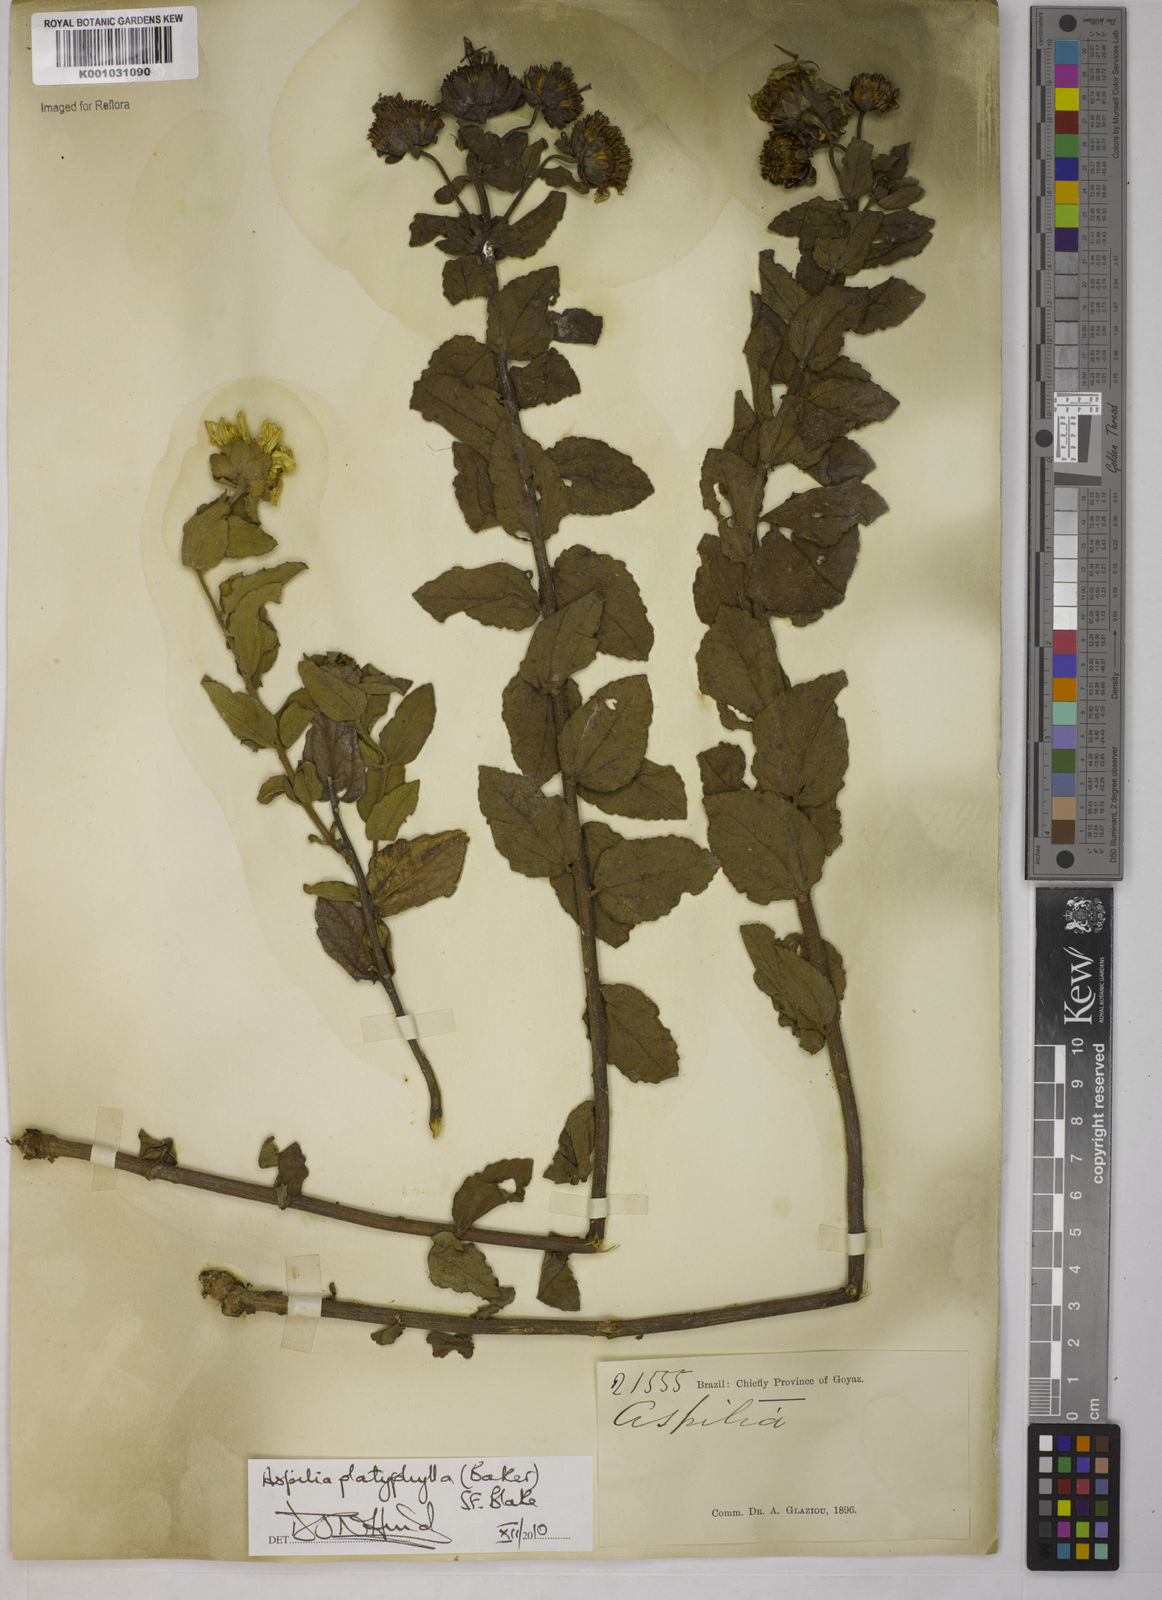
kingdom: Plantae
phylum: Tracheophyta
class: Magnoliopsida
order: Asterales
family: Asteraceae
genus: Aspilia
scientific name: Aspilia
